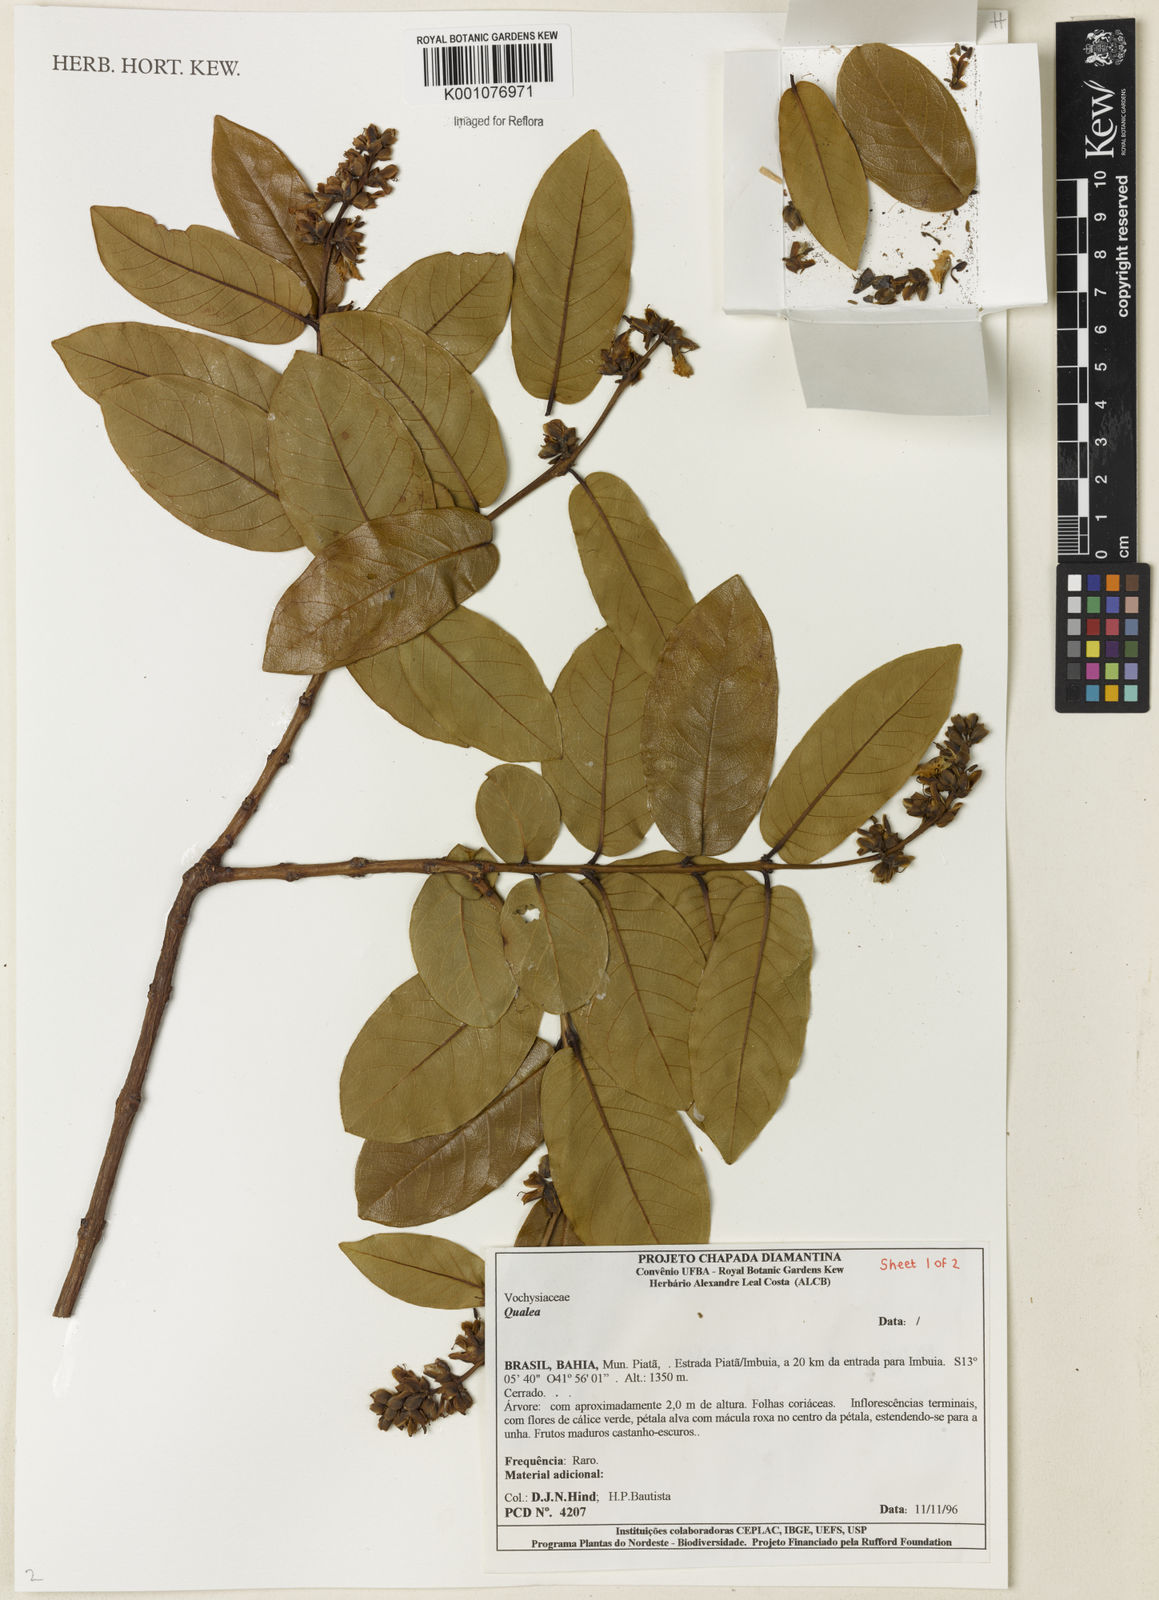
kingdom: Plantae
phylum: Tracheophyta
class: Magnoliopsida
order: Myrtales
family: Vochysiaceae
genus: Qualea
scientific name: Qualea
